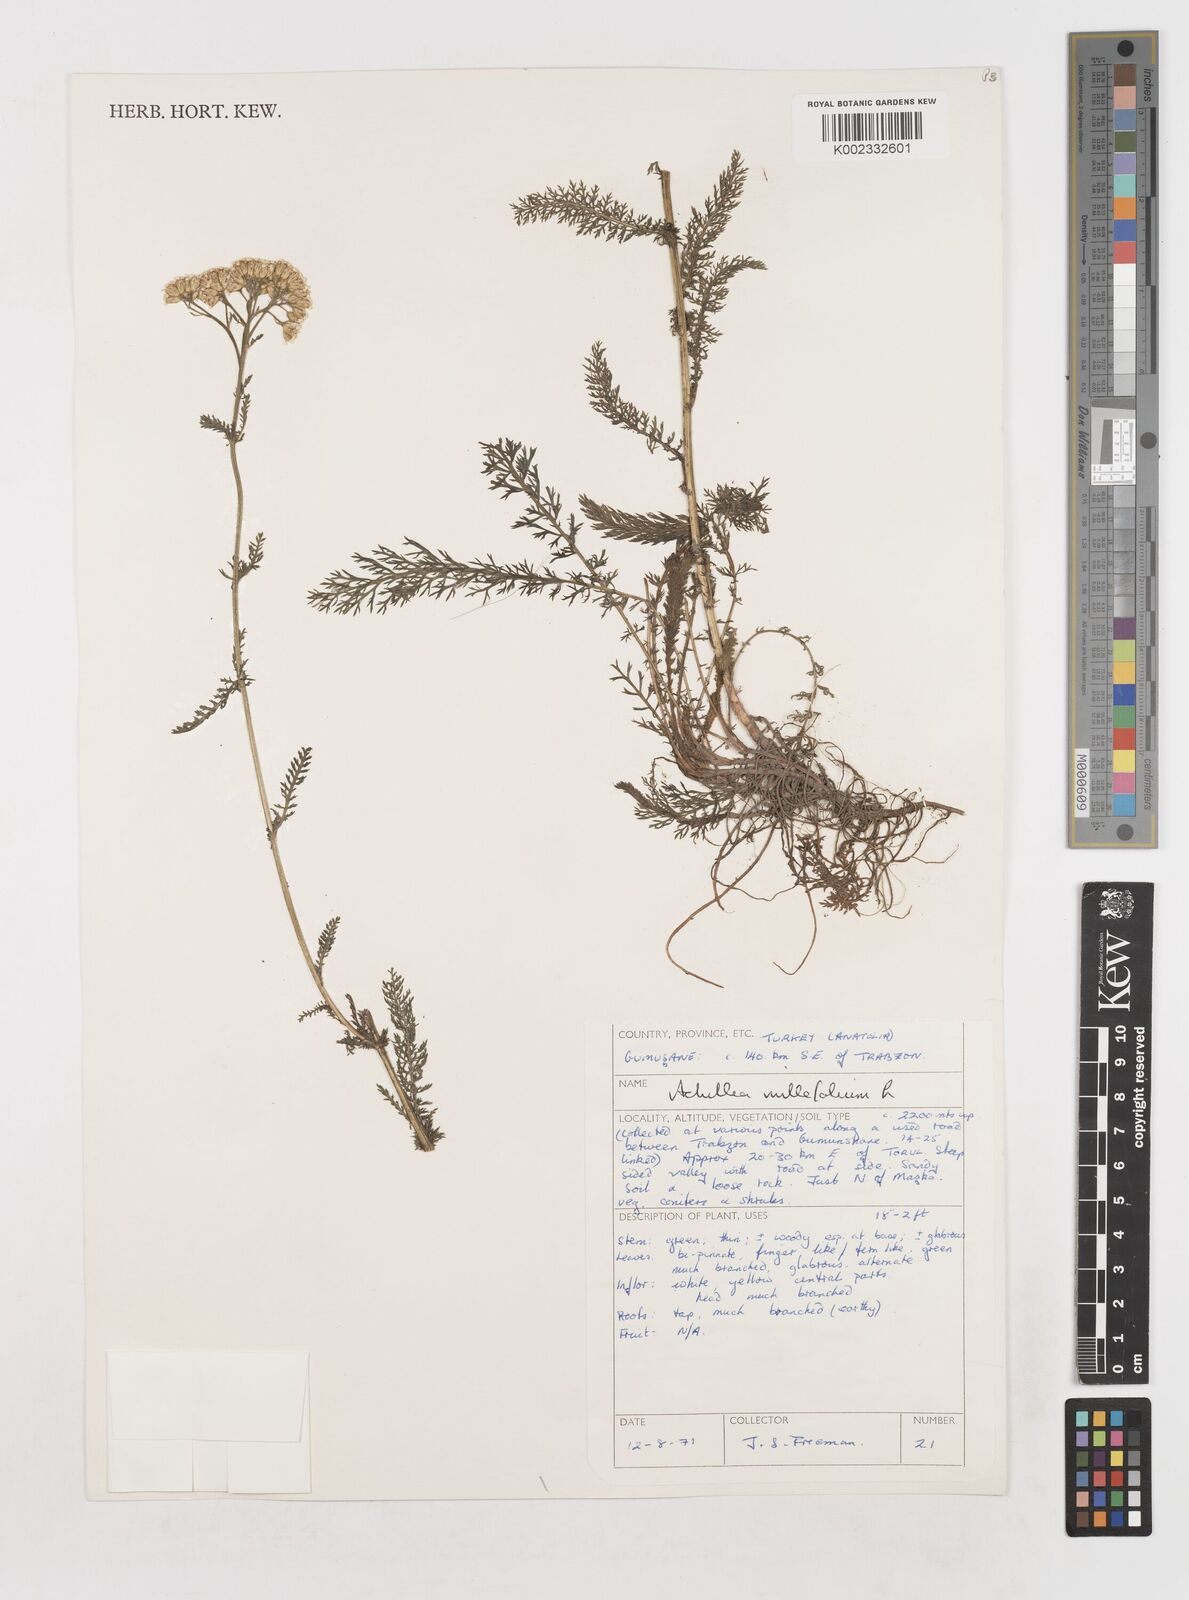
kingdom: Plantae
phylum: Tracheophyta
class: Magnoliopsida
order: Asterales
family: Asteraceae
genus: Achillea
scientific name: Achillea millefolium
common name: Yarrow
